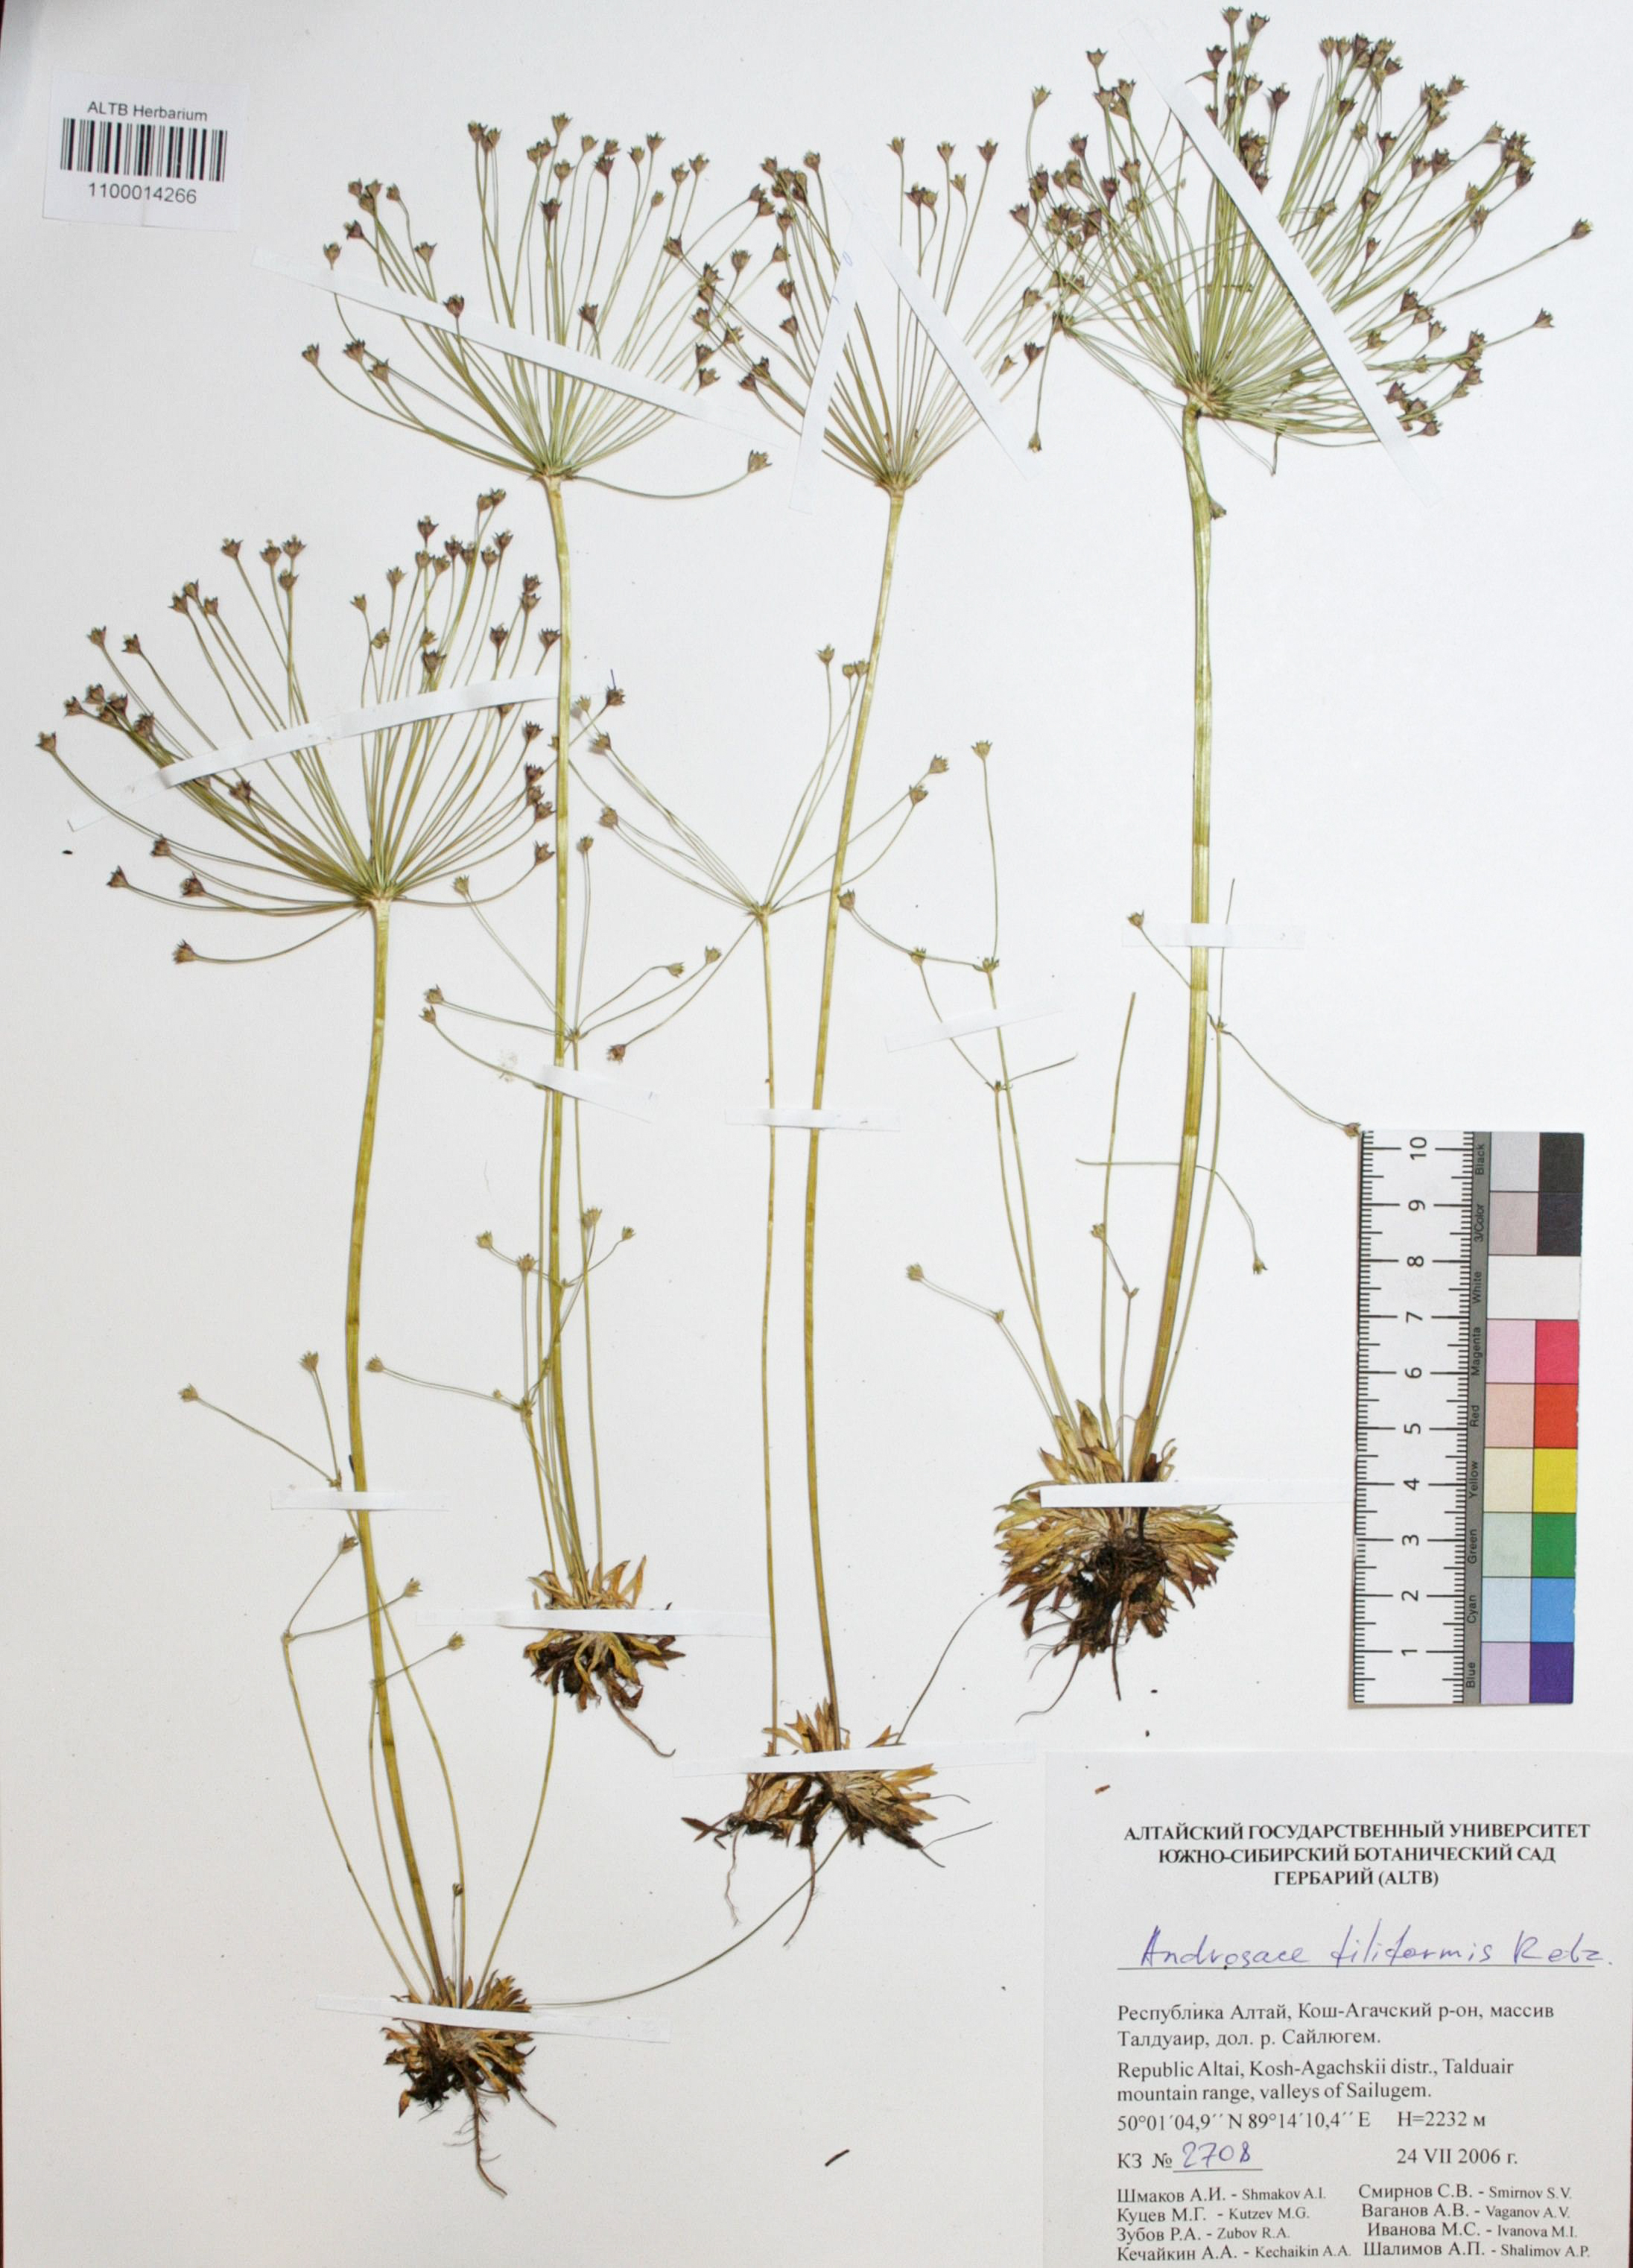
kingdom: Plantae
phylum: Tracheophyta
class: Magnoliopsida
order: Ericales
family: Primulaceae
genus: Androsace
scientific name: Androsace filiformis
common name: Filiform rock jasmine
